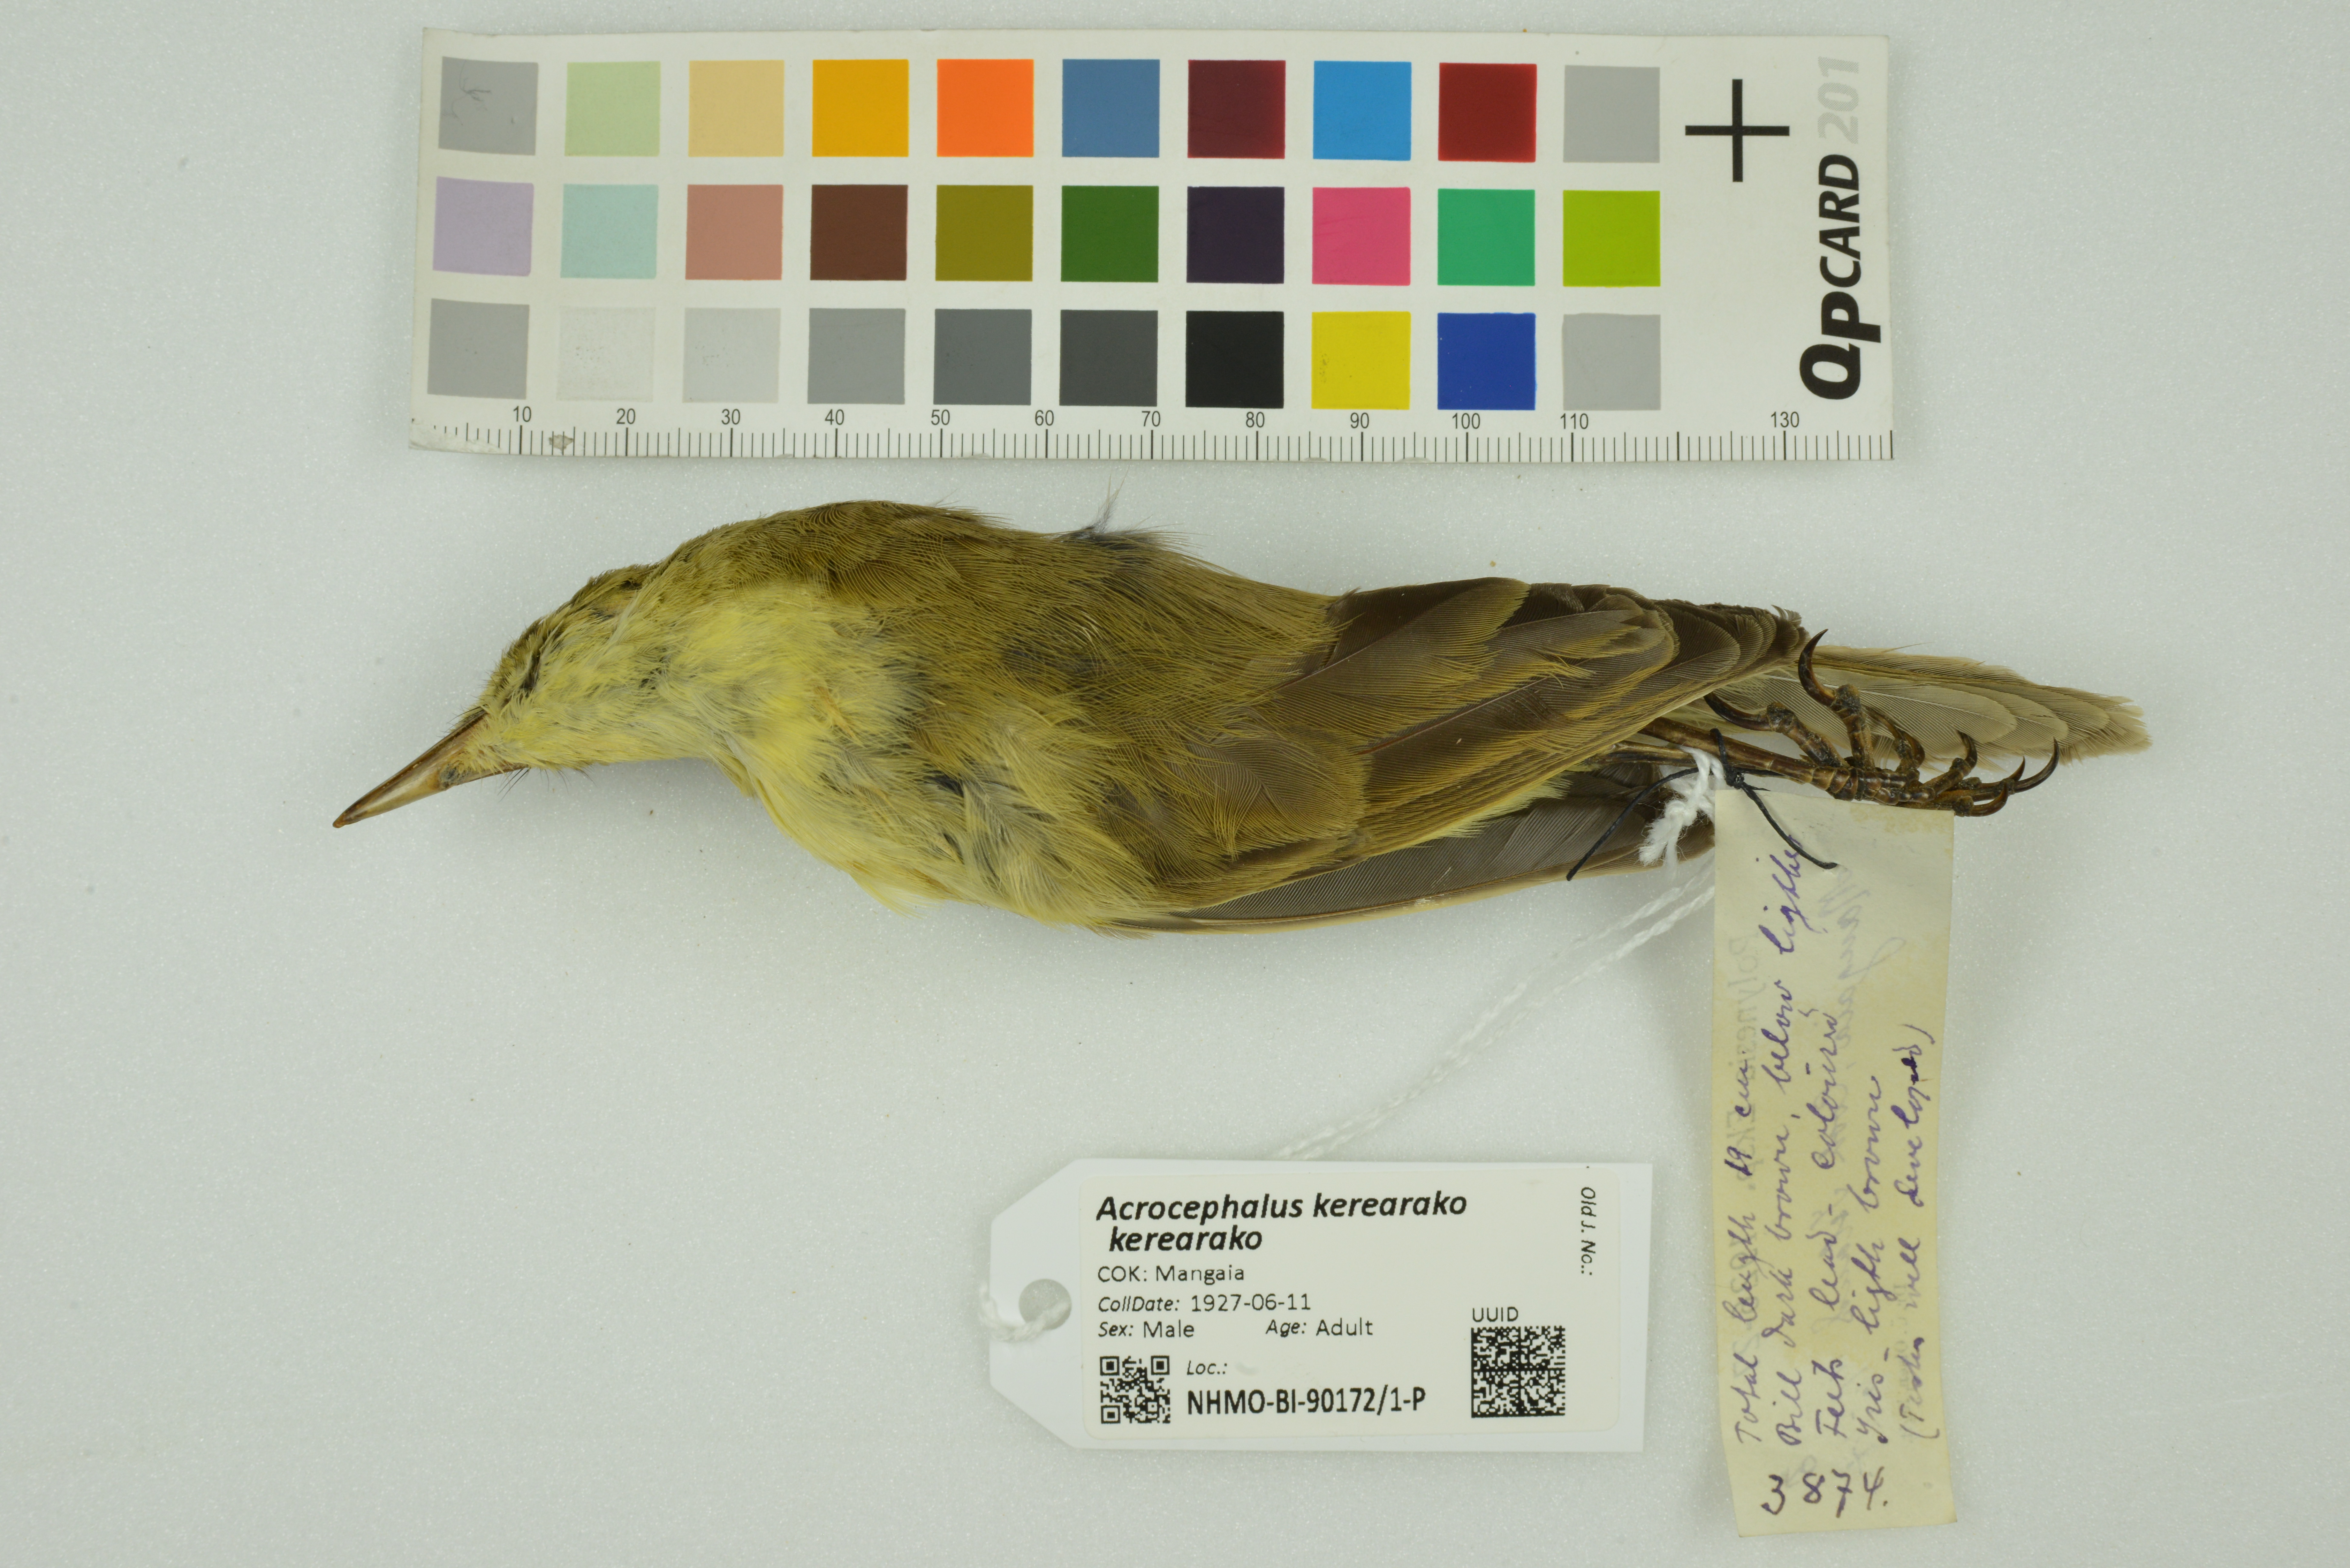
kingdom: Animalia
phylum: Chordata
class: Aves
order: Passeriformes
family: Acrocephalidae
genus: Acrocephalus
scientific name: Acrocephalus kerearako
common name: Cook reed warbler
